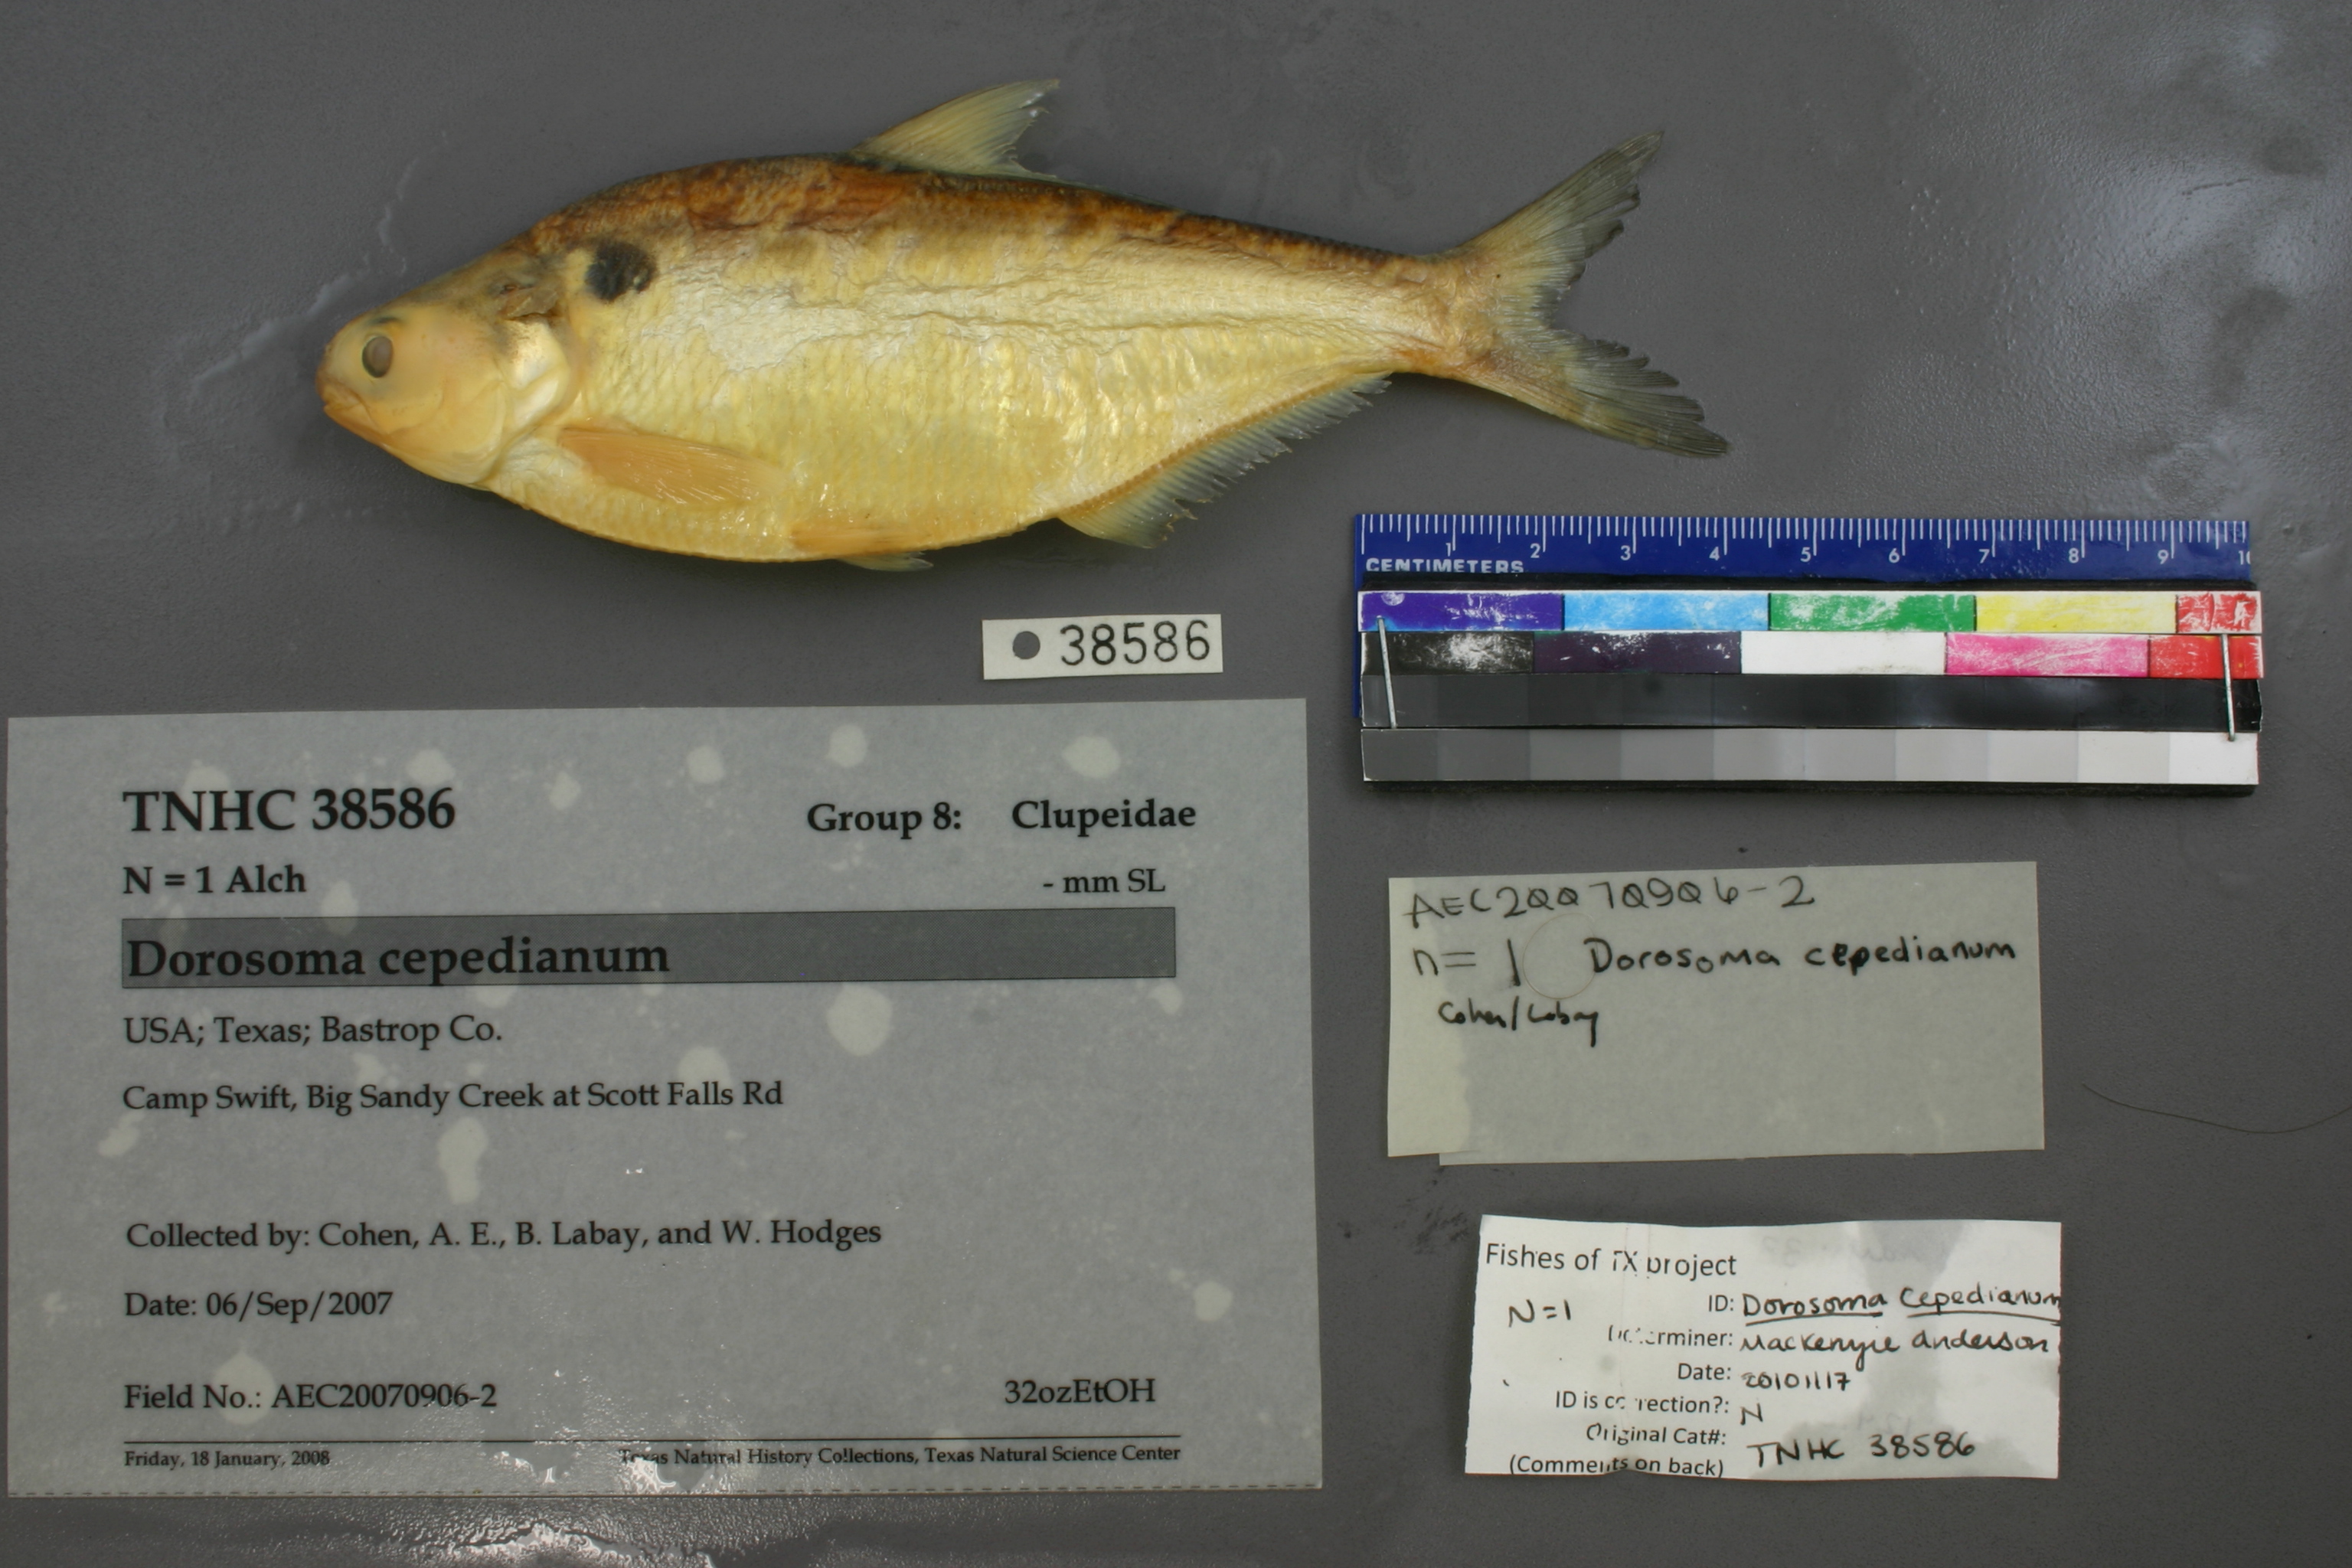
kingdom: Animalia
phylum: Chordata
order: Clupeiformes
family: Clupeidae
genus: Dorosoma
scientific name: Dorosoma cepedianum
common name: Gizzard shad
